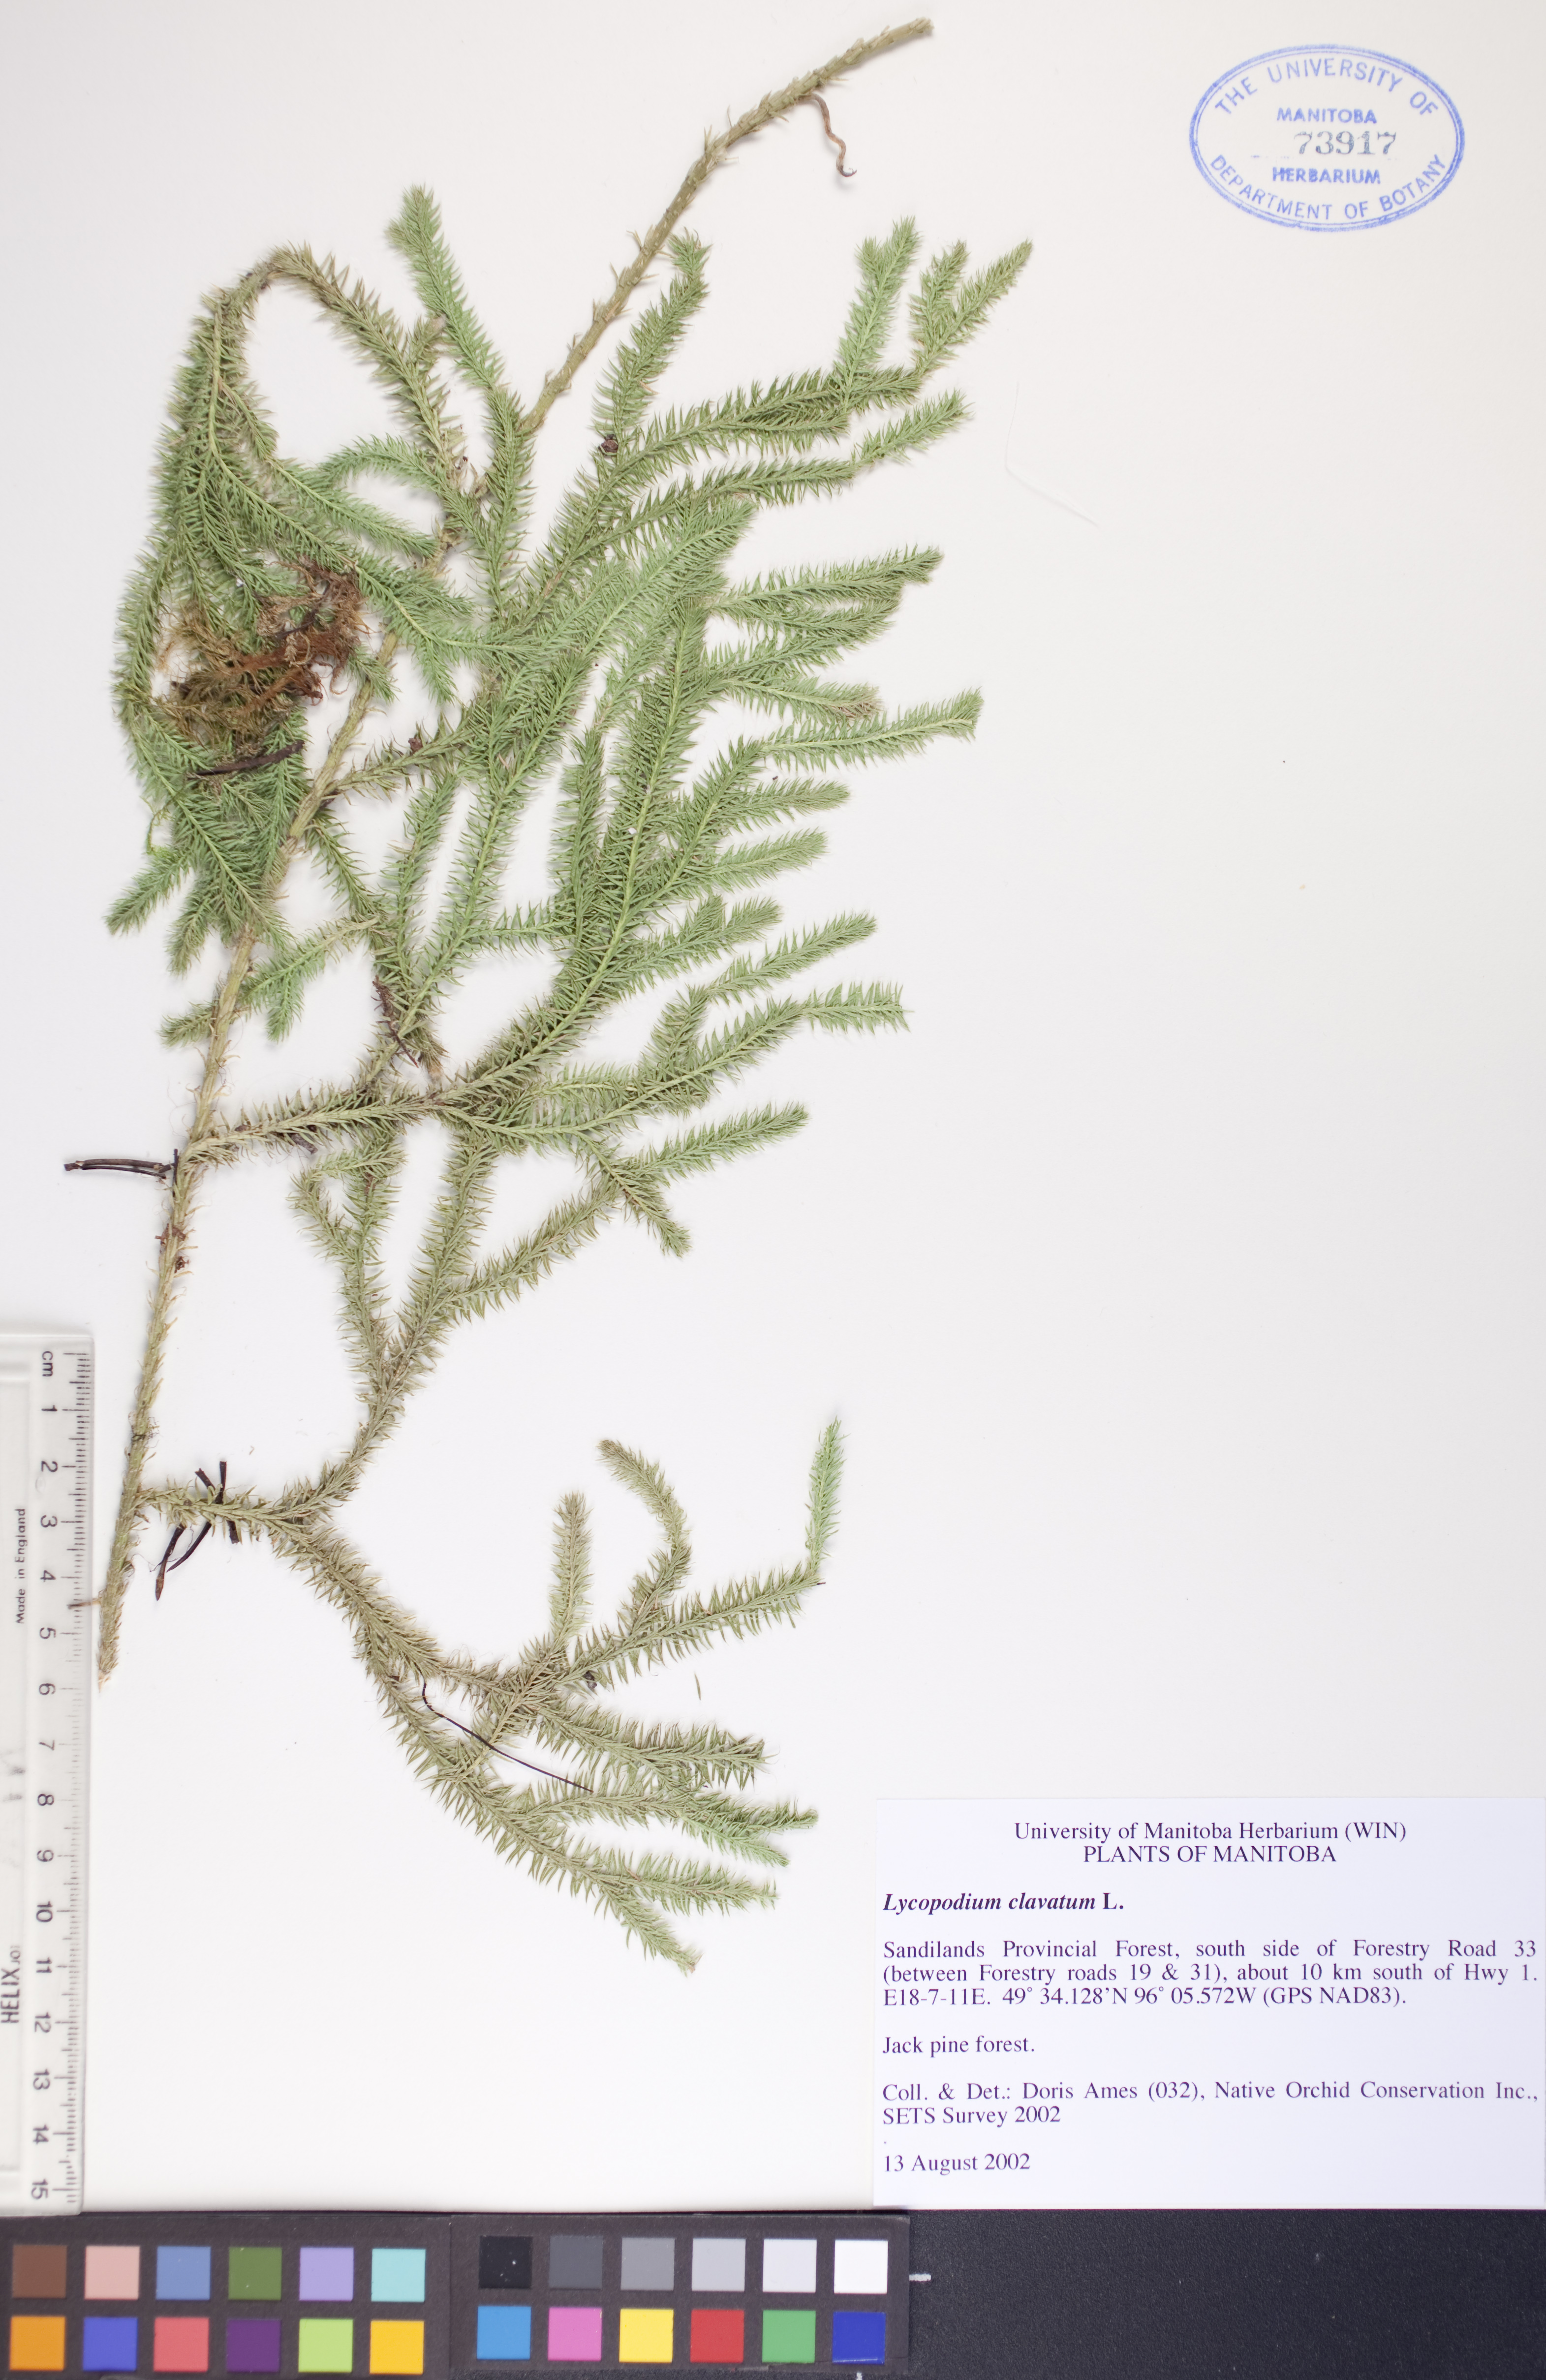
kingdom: Plantae
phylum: Tracheophyta
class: Lycopodiopsida
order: Lycopodiales
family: Lycopodiaceae
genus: Lycopodium
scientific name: Lycopodium clavatum
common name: Stag's-horn clubmoss
